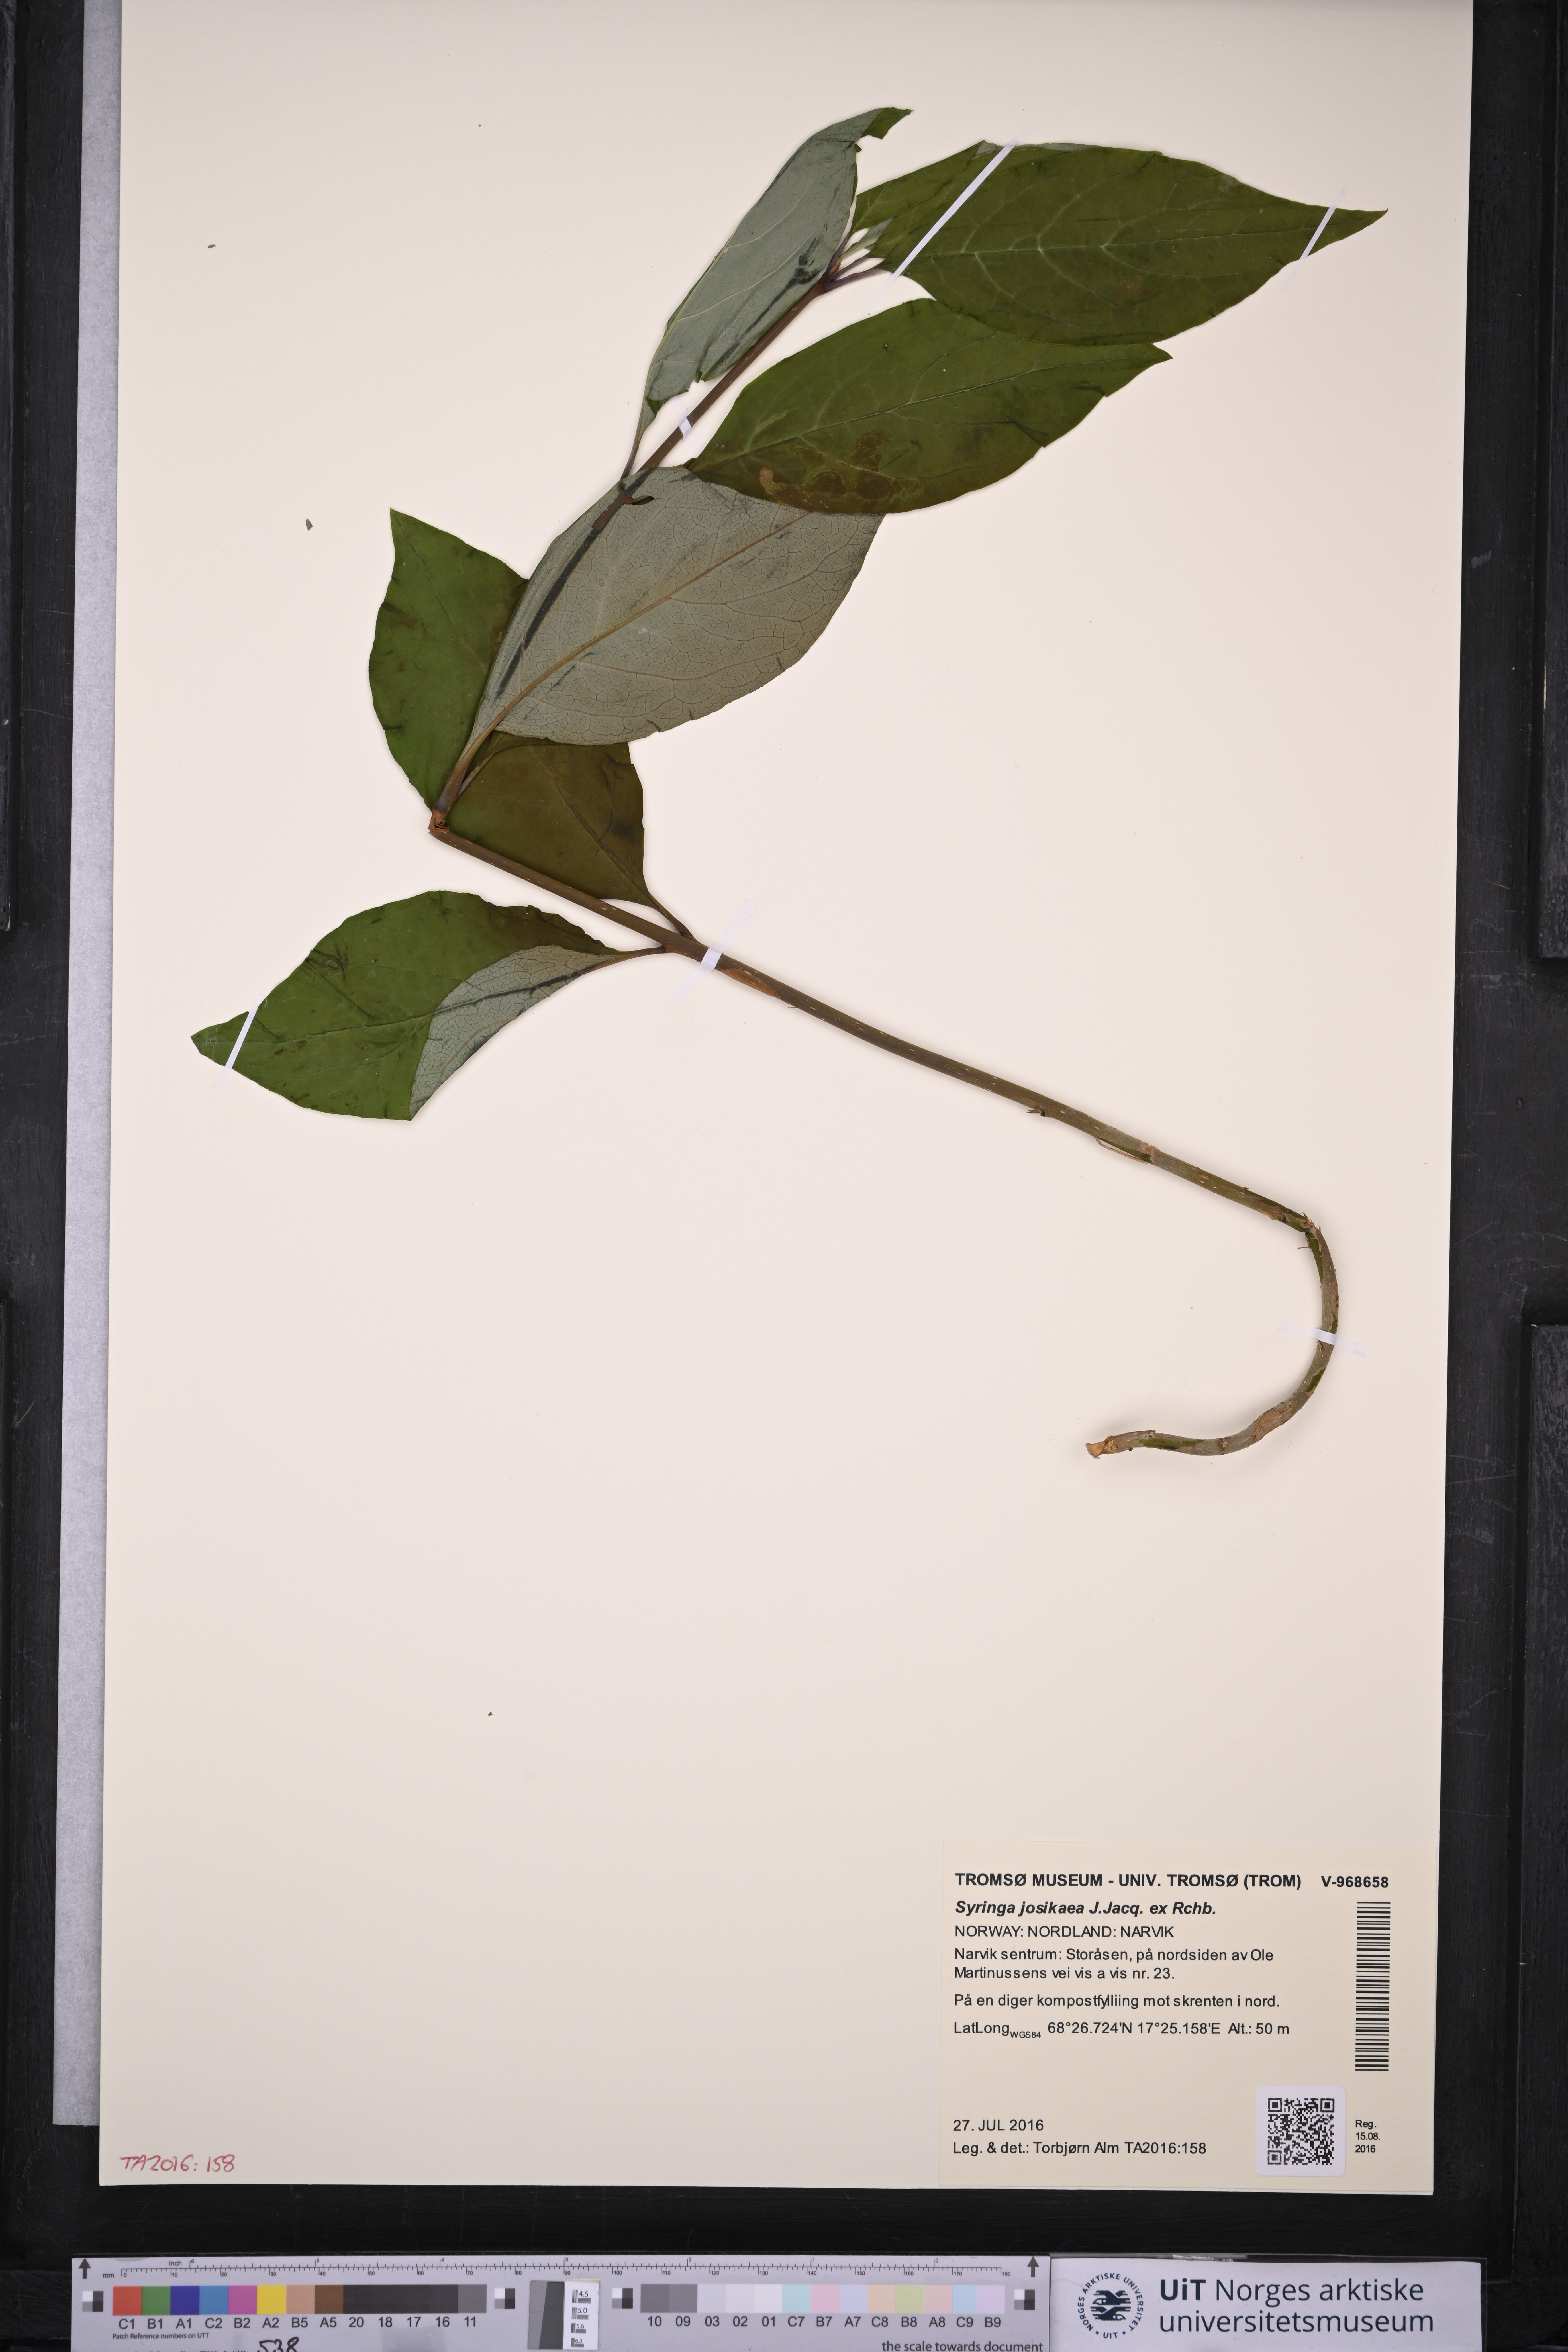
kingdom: Plantae
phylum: Tracheophyta
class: Magnoliopsida
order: Lamiales
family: Oleaceae
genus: Syringa
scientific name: Syringa josikaea
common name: Hungarian lilac
